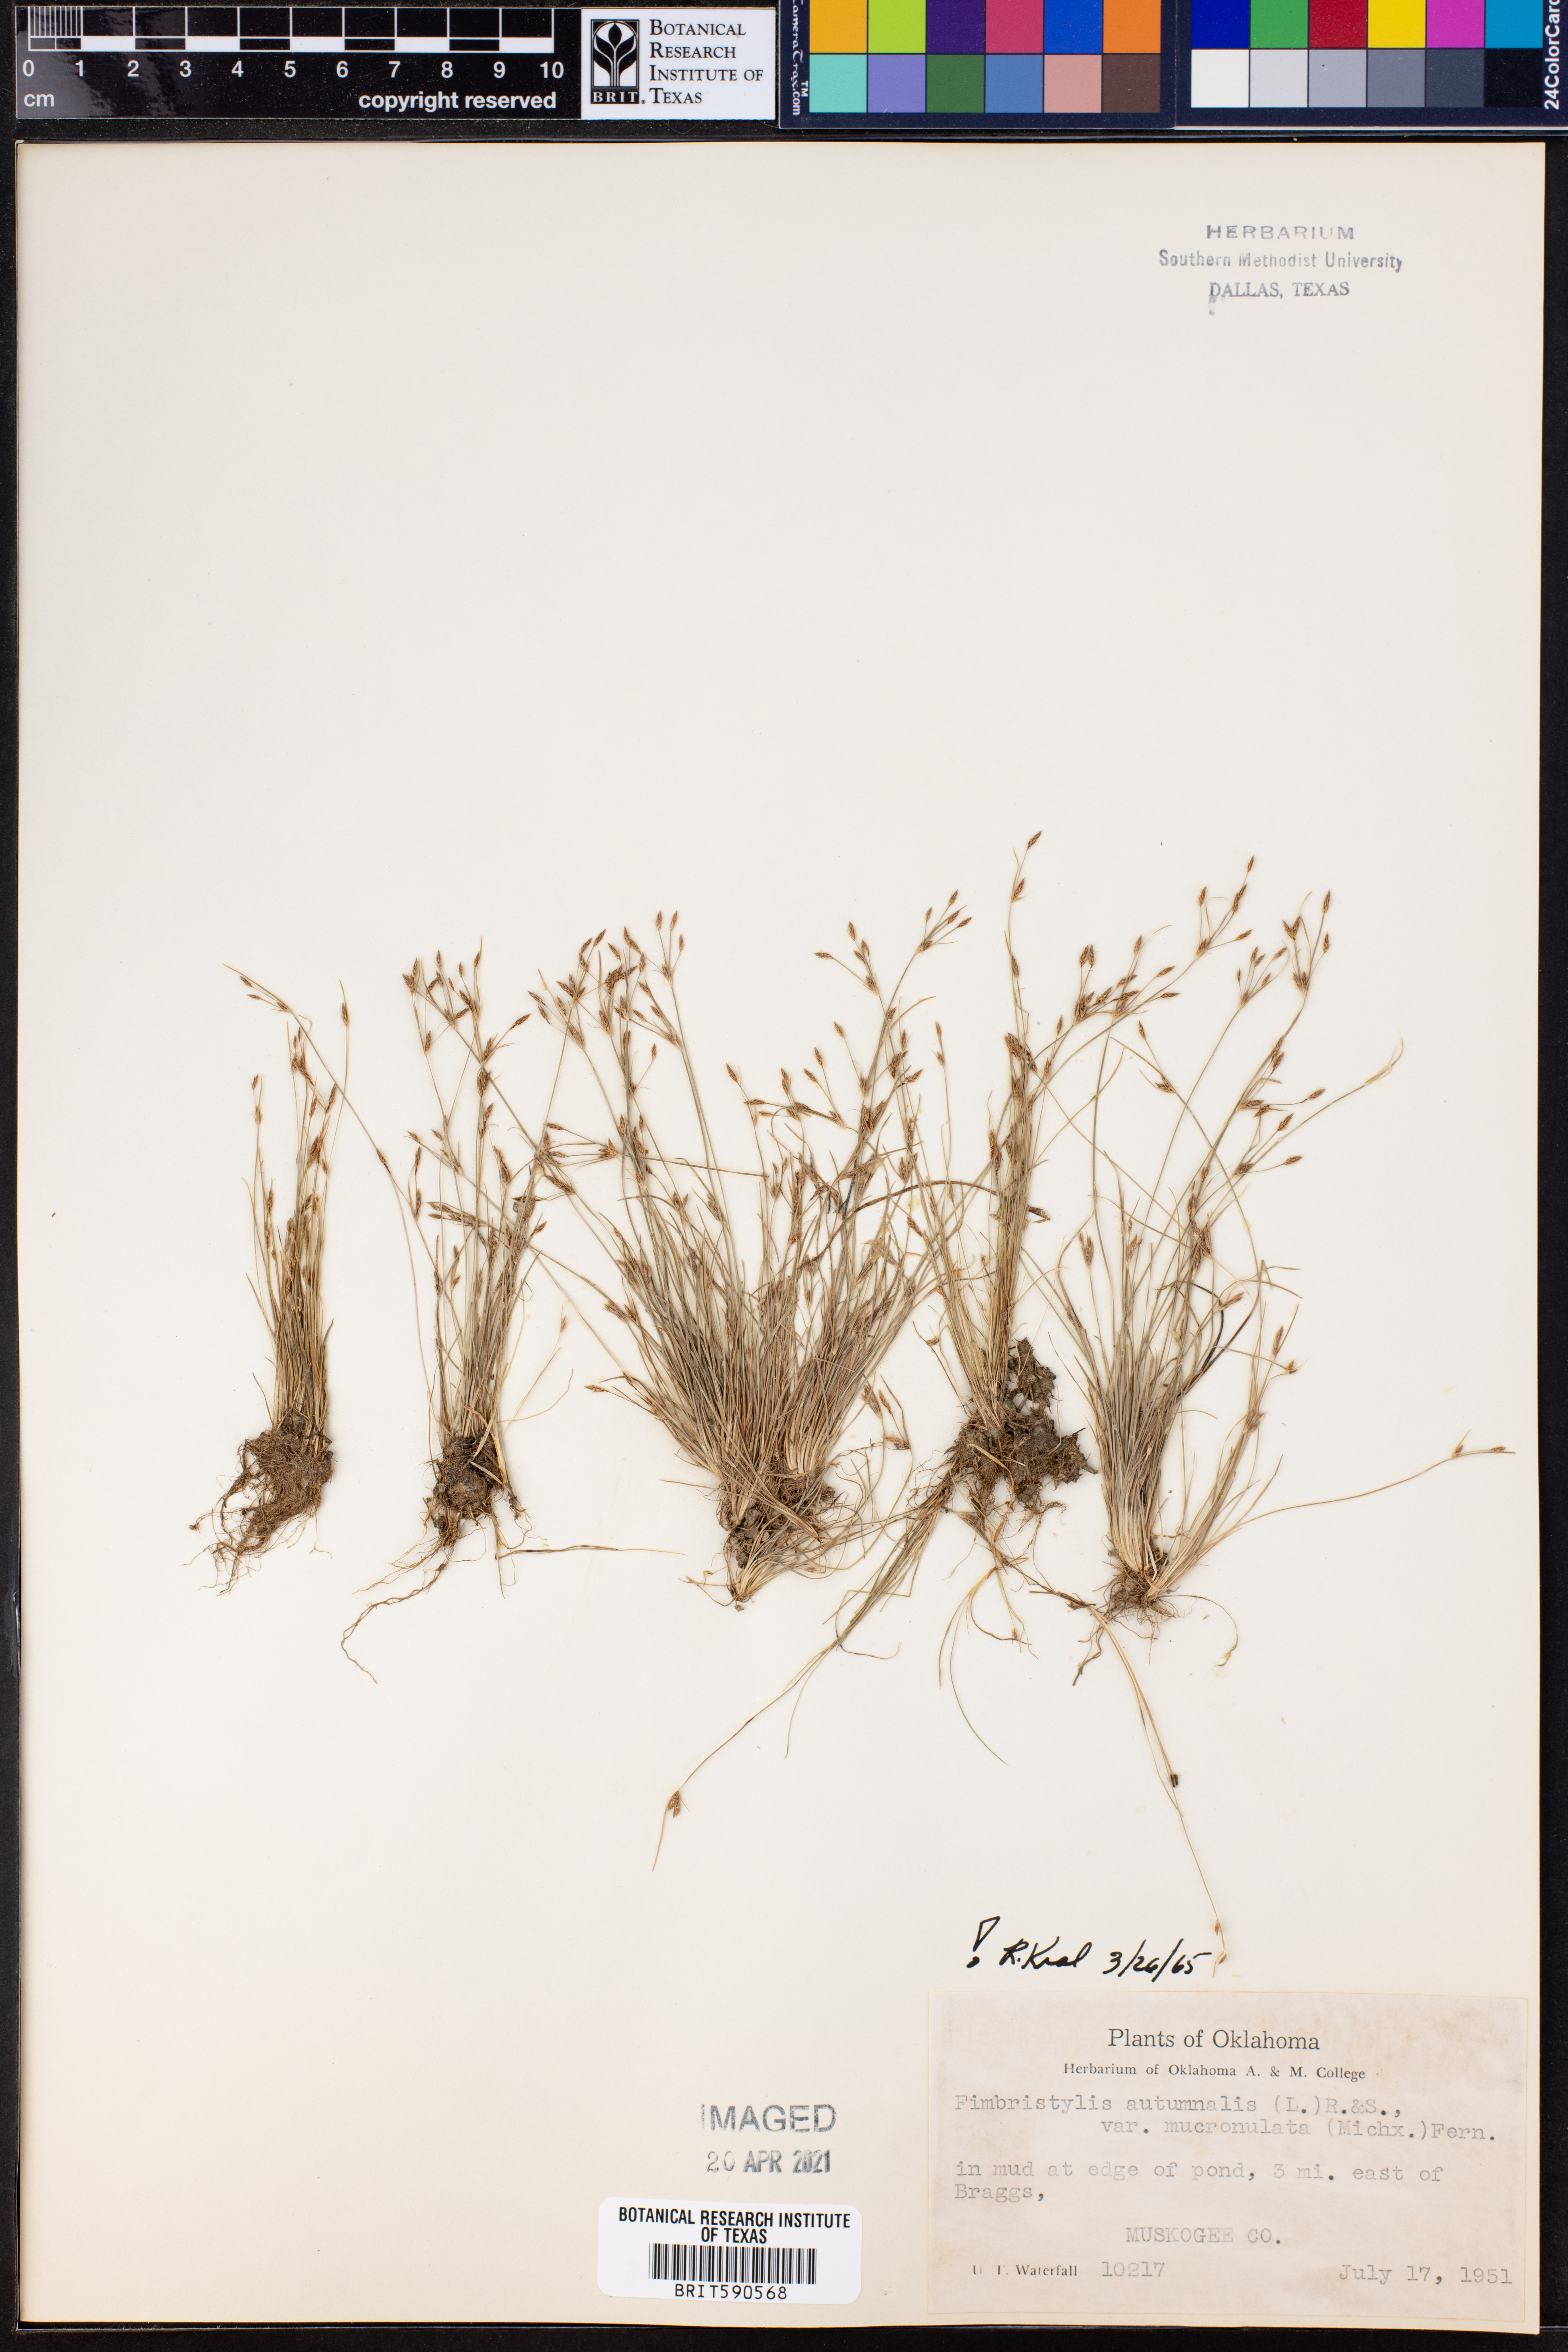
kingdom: Plantae
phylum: Tracheophyta
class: Liliopsida
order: Poales
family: Cyperaceae
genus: Fimbristylis
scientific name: Fimbristylis autumnalis
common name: Slender fimbristylis
